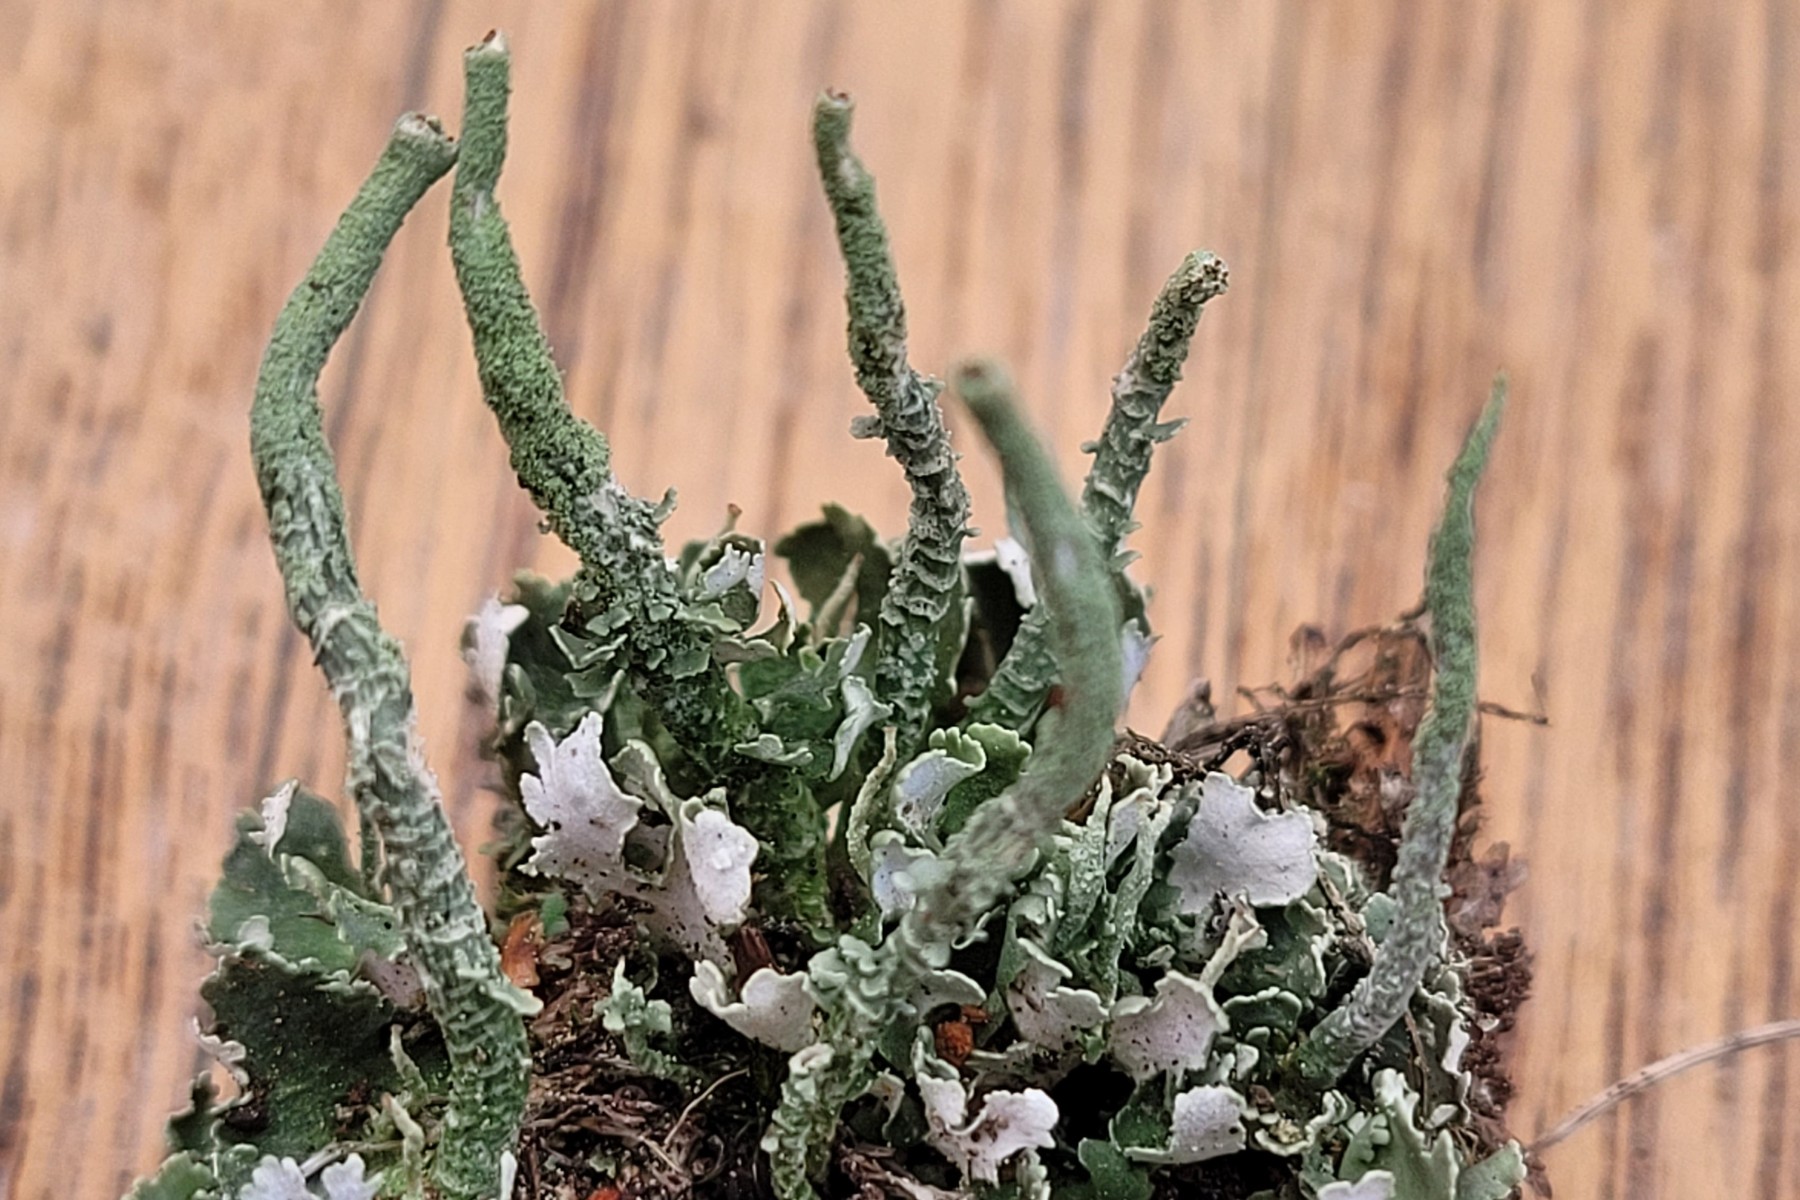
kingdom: Fungi
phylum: Ascomycota
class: Lecanoromycetes
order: Lecanorales
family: Cladoniaceae
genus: Cladonia
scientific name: Cladonia coniocraea
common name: træfods-bægerlav
